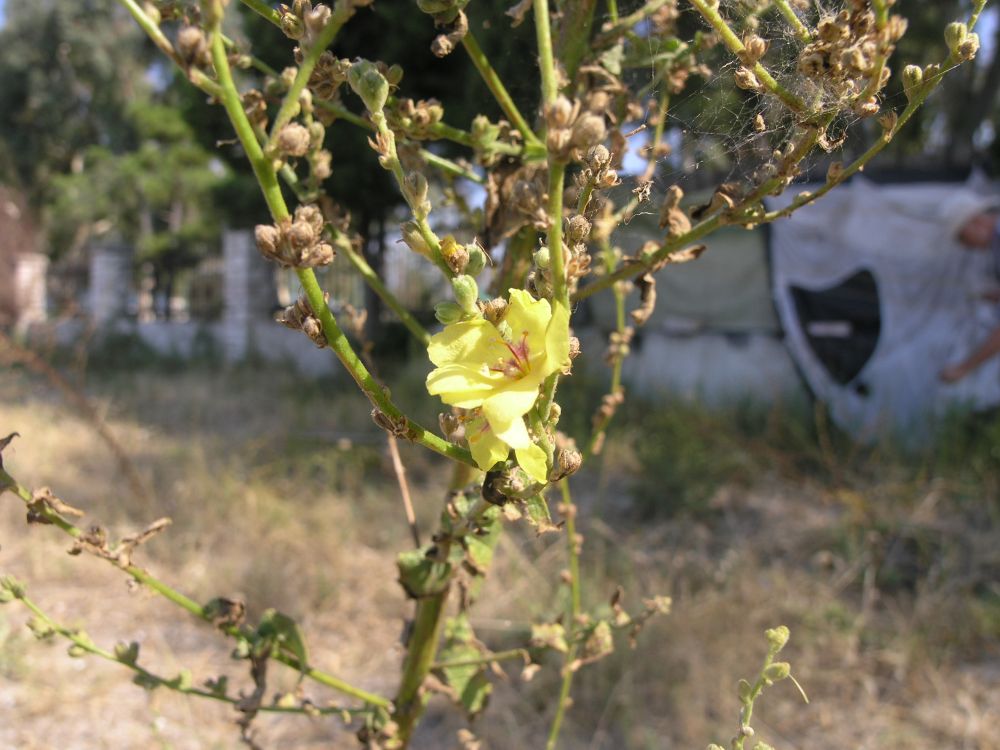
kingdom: Plantae
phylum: Tracheophyta
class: Magnoliopsida
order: Lamiales
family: Scrophulariaceae
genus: Verbascum
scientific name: Verbascum sinuatum
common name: Wavyleaf mullein
